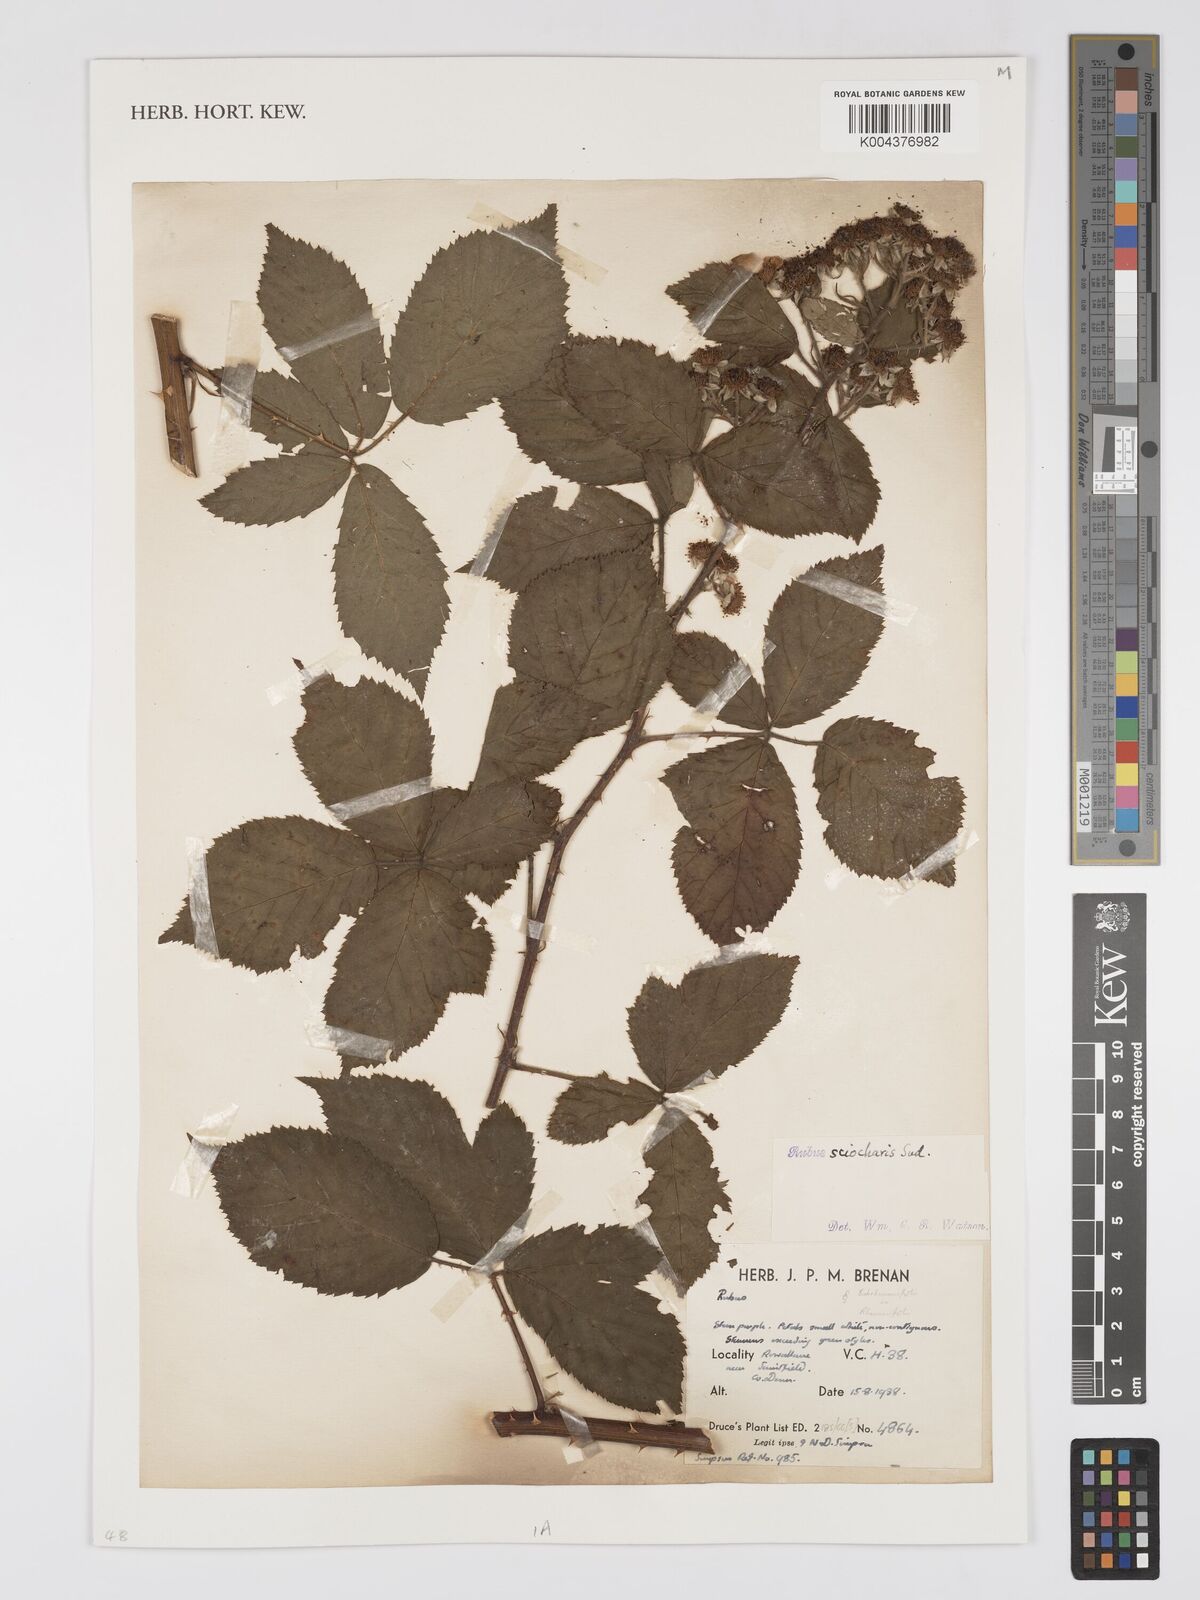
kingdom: Plantae
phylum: Tracheophyta
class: Magnoliopsida
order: Rosales
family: Rosaceae
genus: Rubus
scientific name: Rubus sciocharis
